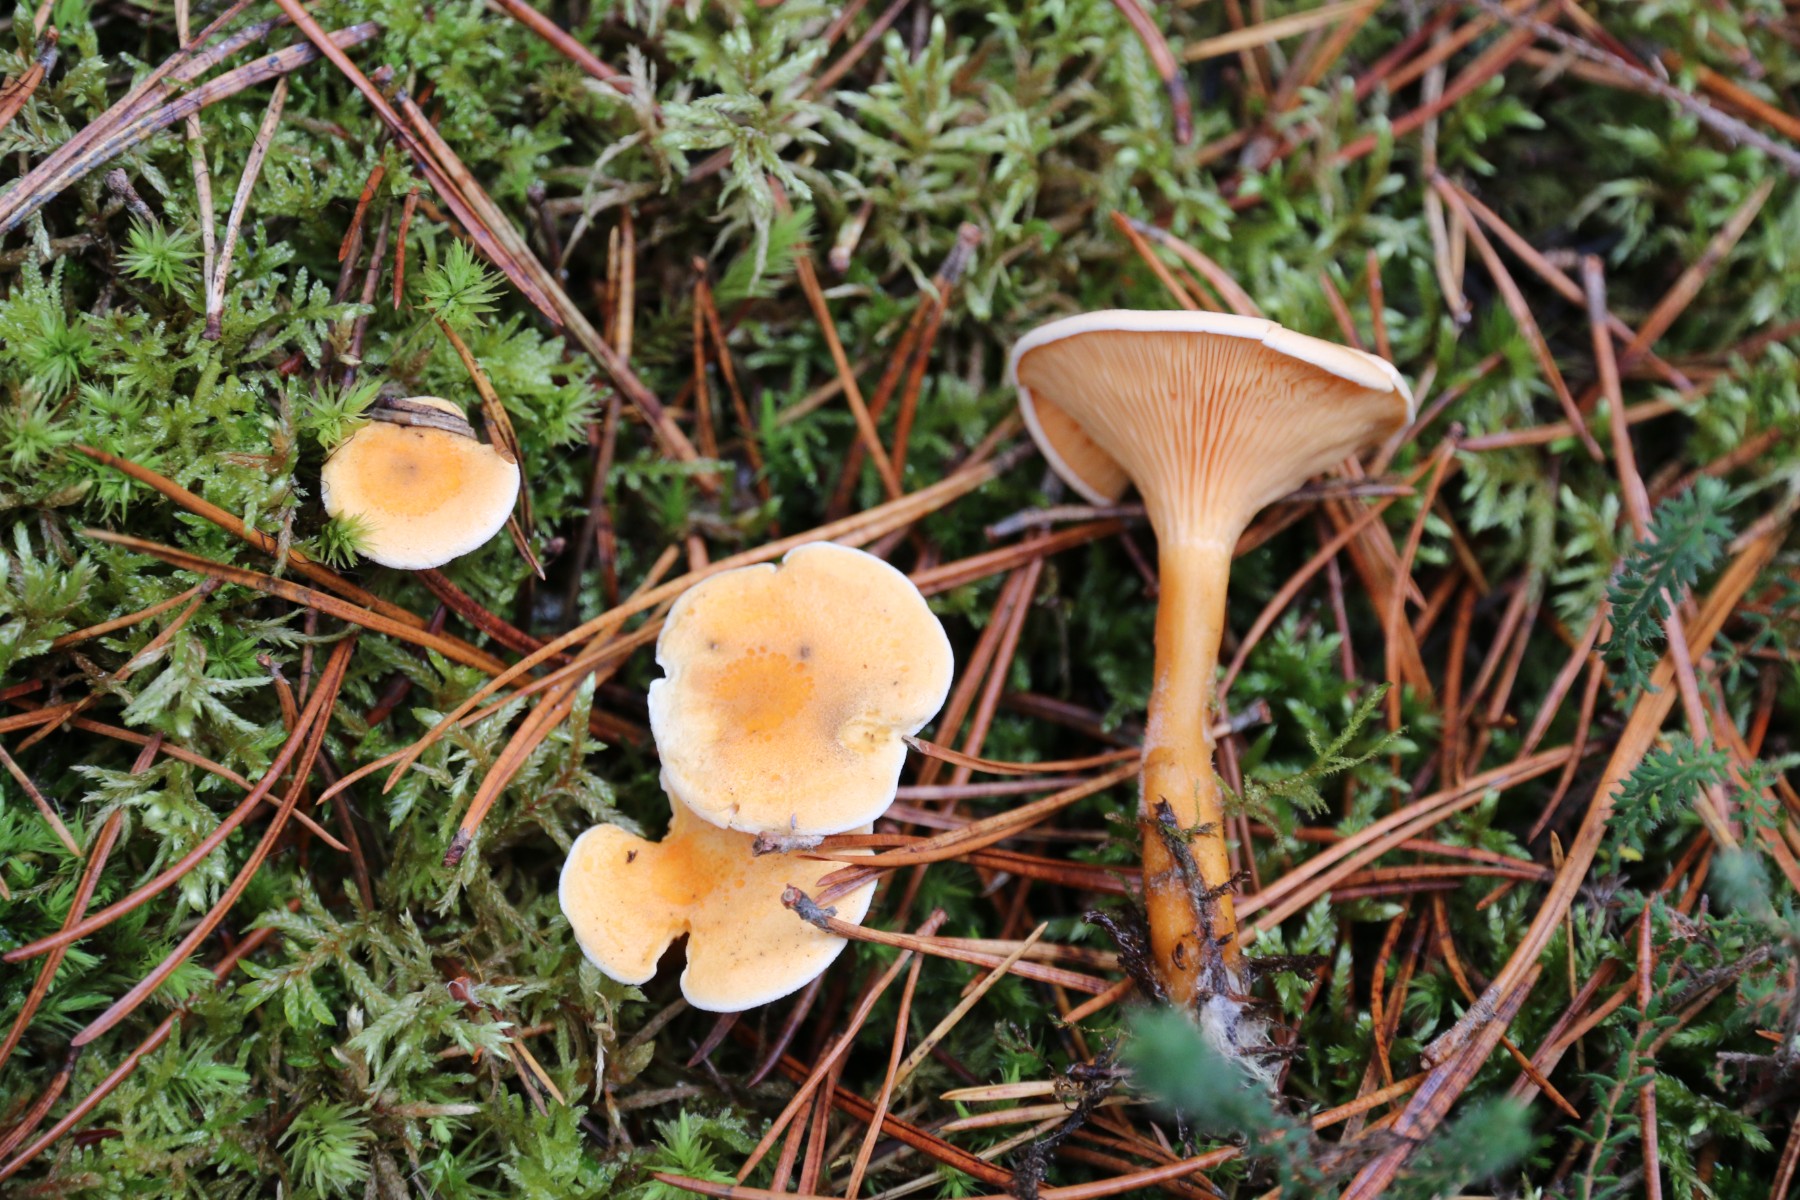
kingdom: Fungi
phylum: Basidiomycota
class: Agaricomycetes
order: Boletales
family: Hygrophoropsidaceae
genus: Hygrophoropsis
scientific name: Hygrophoropsis aurantiaca
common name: almindelig orangekantarel
